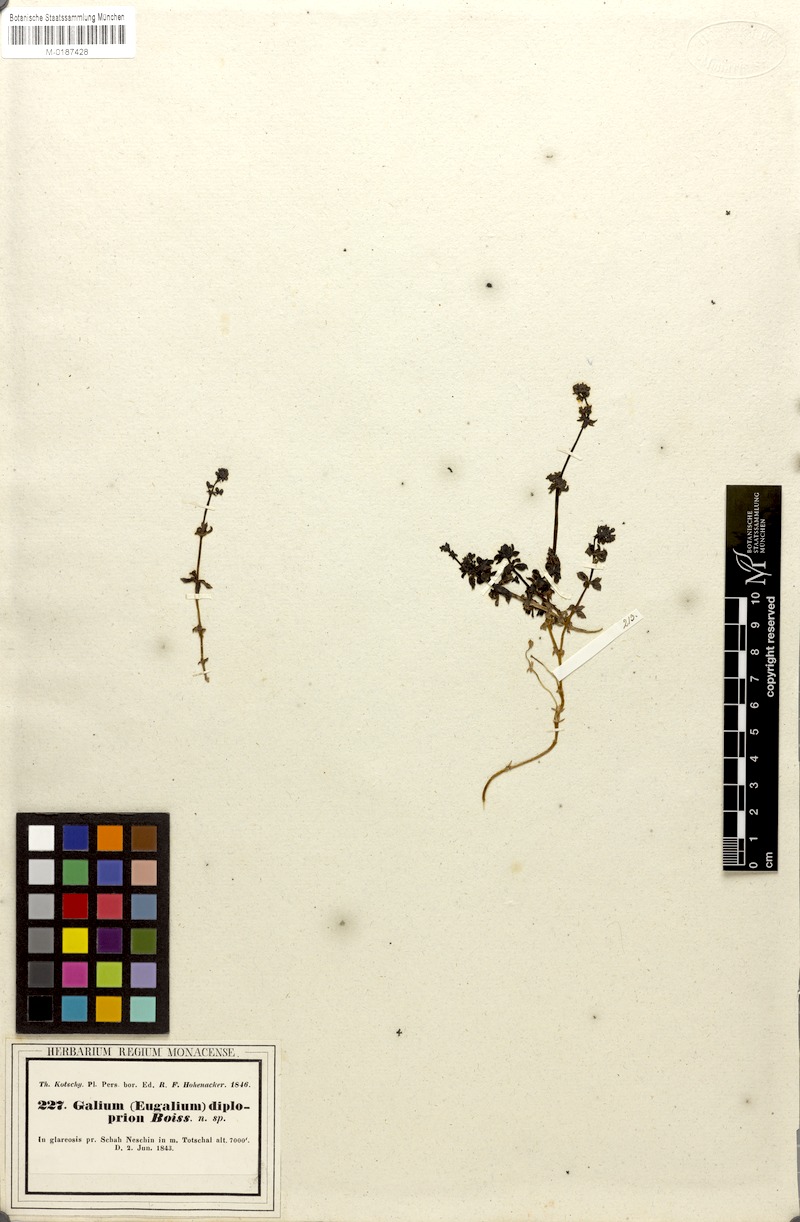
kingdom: Plantae
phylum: Tracheophyta
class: Magnoliopsida
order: Gentianales
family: Rubiaceae
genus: Galium
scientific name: Galium diploprion
